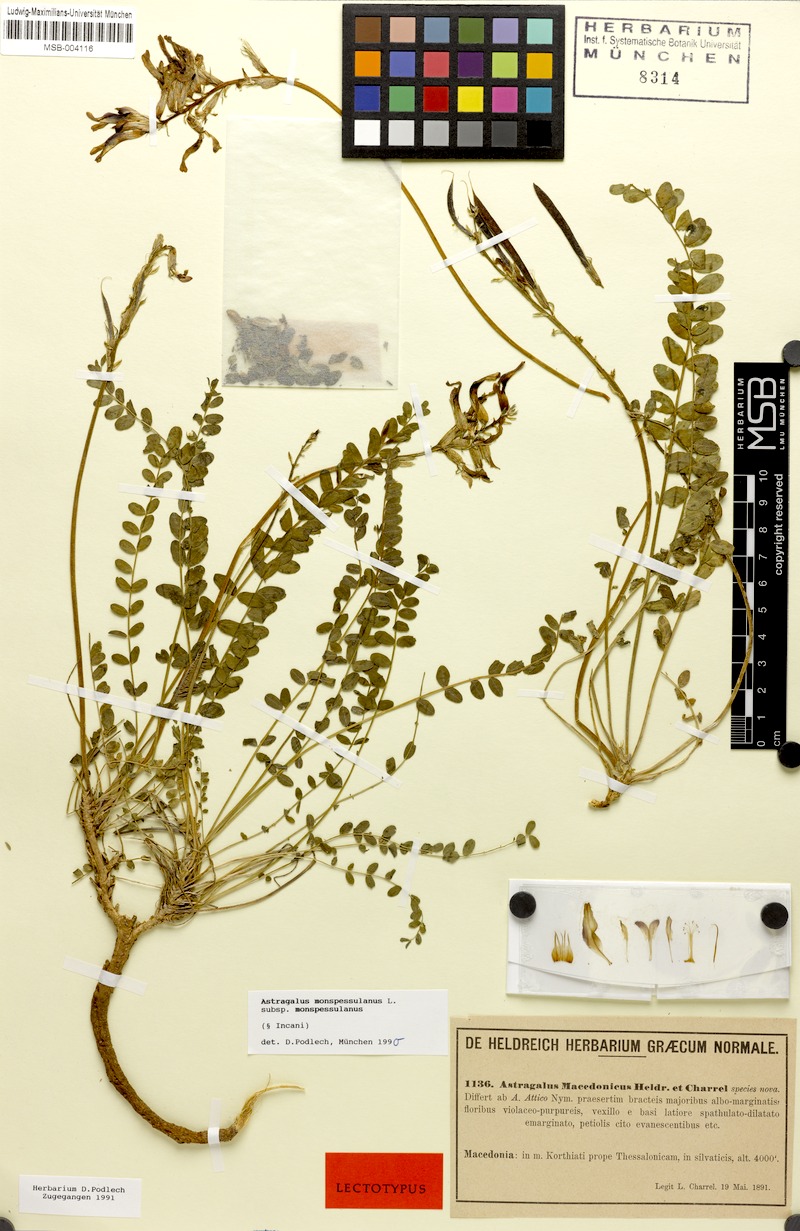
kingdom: Plantae
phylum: Tracheophyta
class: Magnoliopsida
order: Fabales
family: Fabaceae
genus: Astragalus
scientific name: Astragalus monspessulanus
